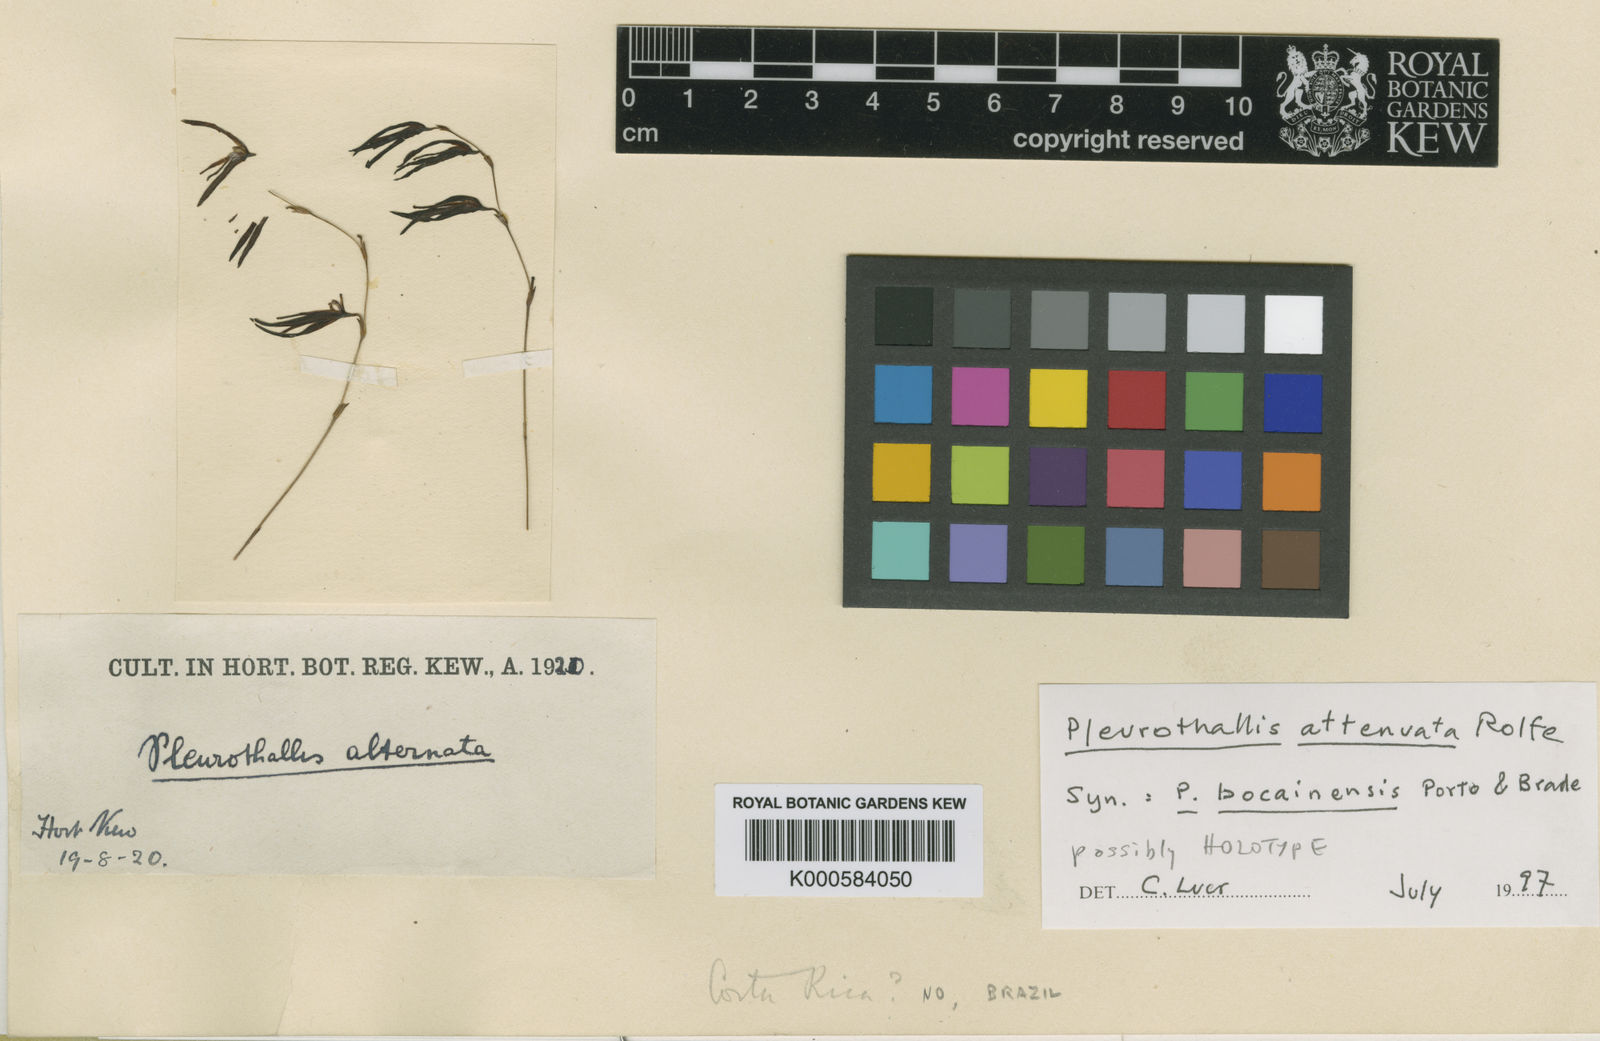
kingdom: Plantae
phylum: Tracheophyta
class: Liliopsida
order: Asparagales
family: Orchidaceae
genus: Anathallis
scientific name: Anathallis attenuata
